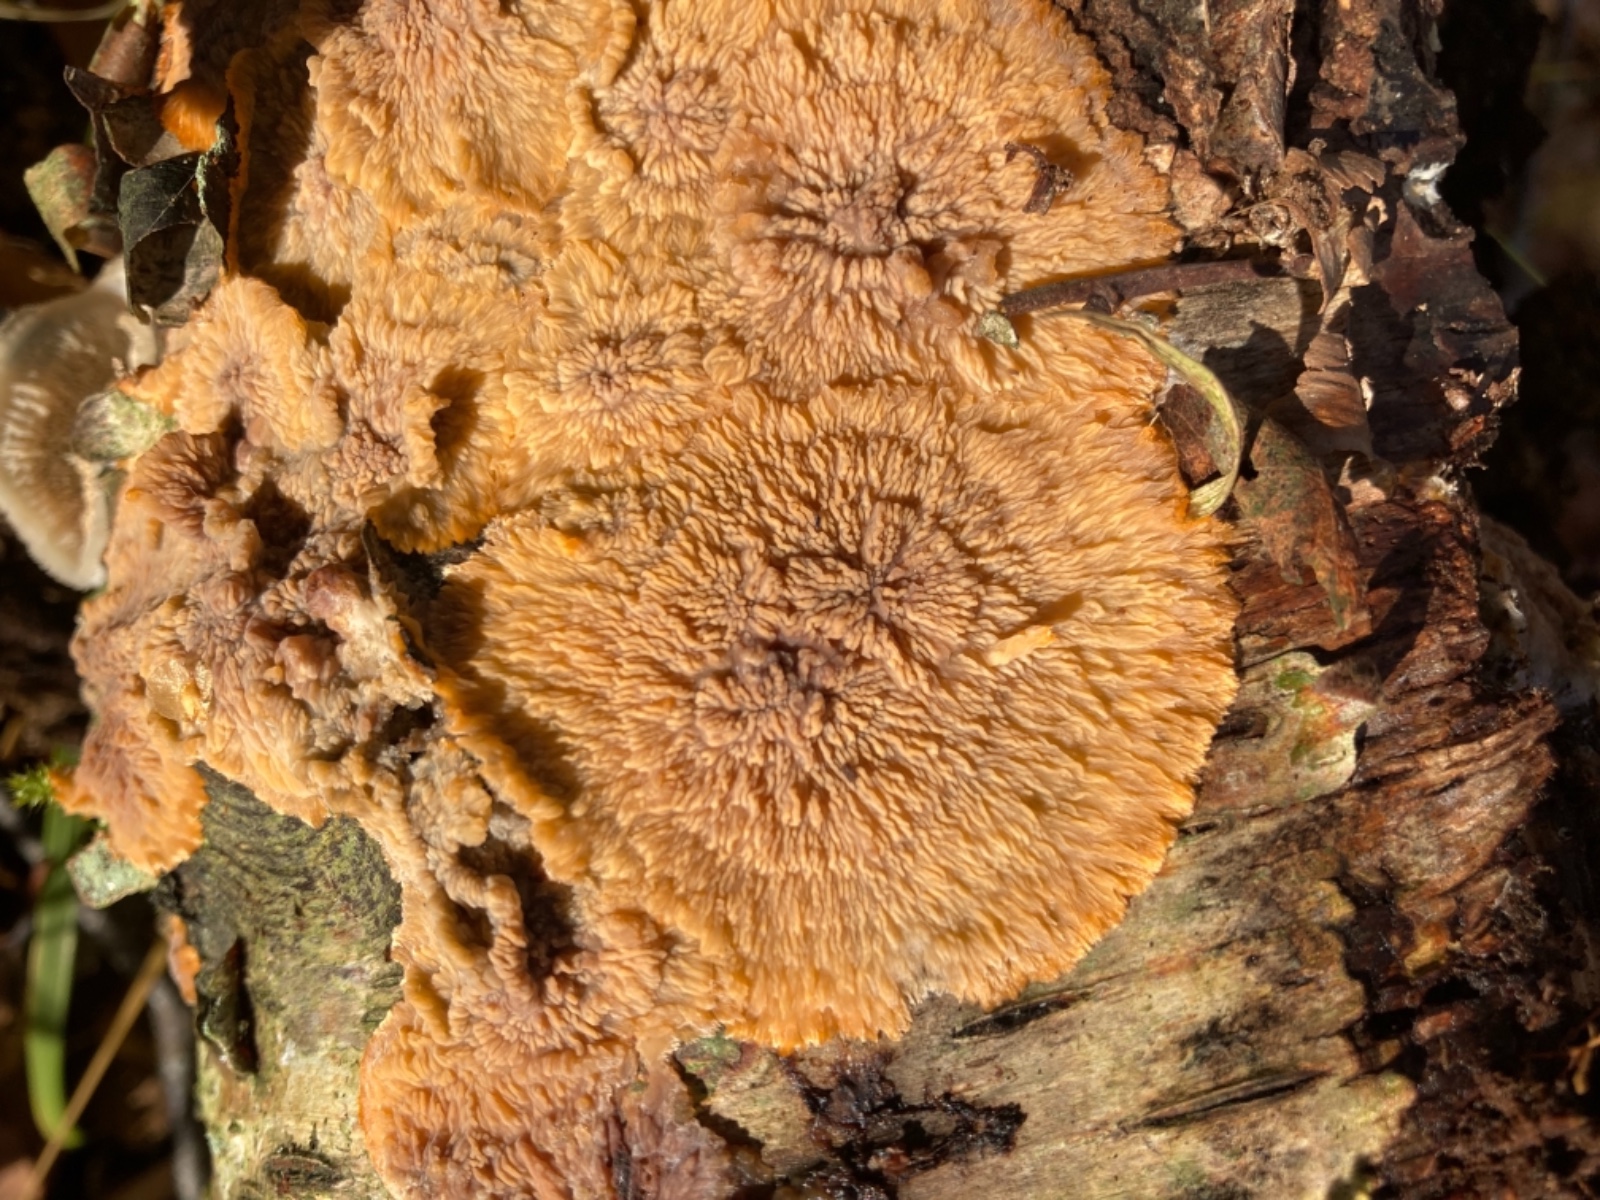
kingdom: Fungi
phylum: Basidiomycota
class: Agaricomycetes
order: Polyporales
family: Meruliaceae
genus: Phlebia
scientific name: Phlebia radiata
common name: stråle-åresvamp
